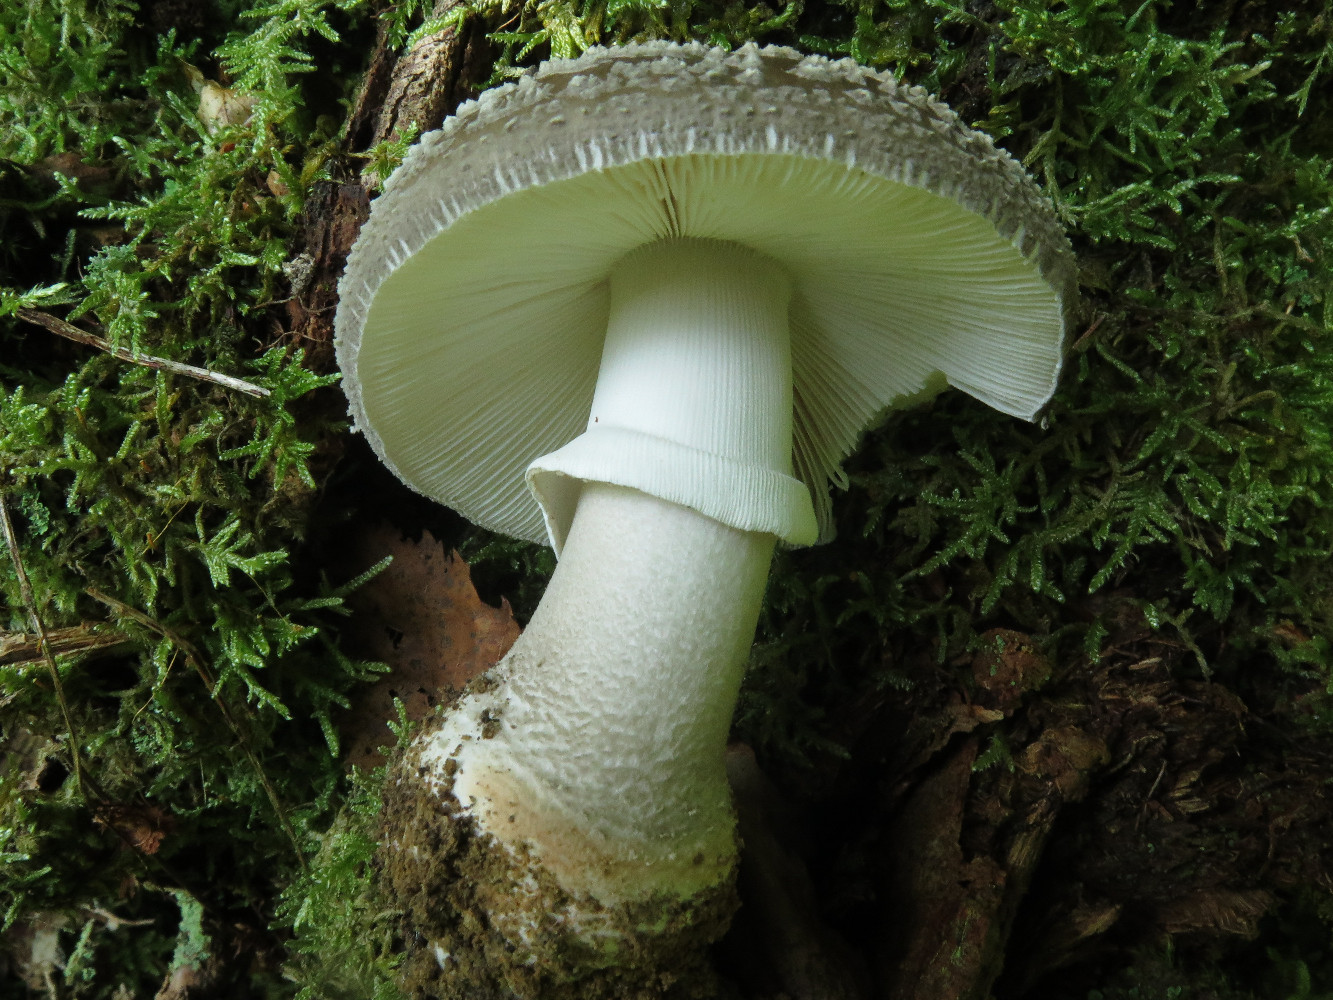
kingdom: Fungi
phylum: Basidiomycota
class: Agaricomycetes
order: Agaricales
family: Amanitaceae
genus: Amanita
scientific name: Amanita
